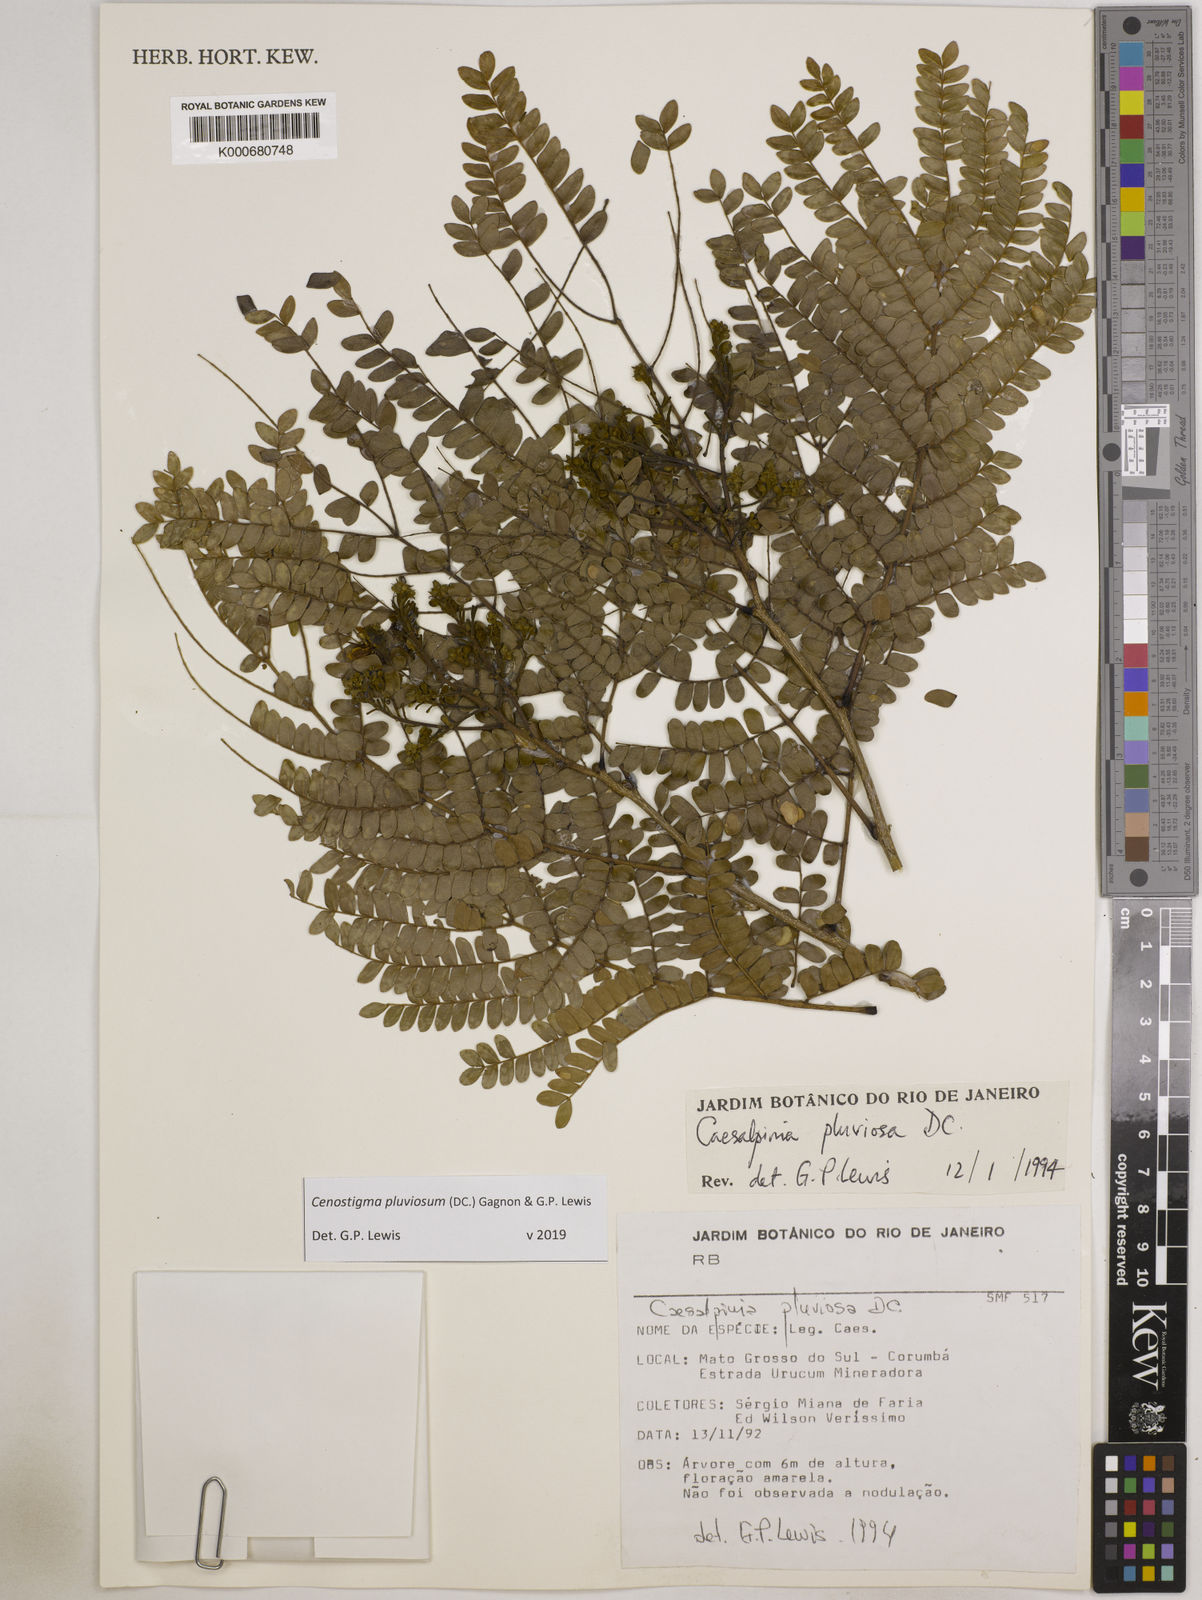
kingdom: Plantae
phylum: Tracheophyta
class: Magnoliopsida
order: Fabales
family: Fabaceae
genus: Cenostigma
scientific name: Cenostigma pluviosum
